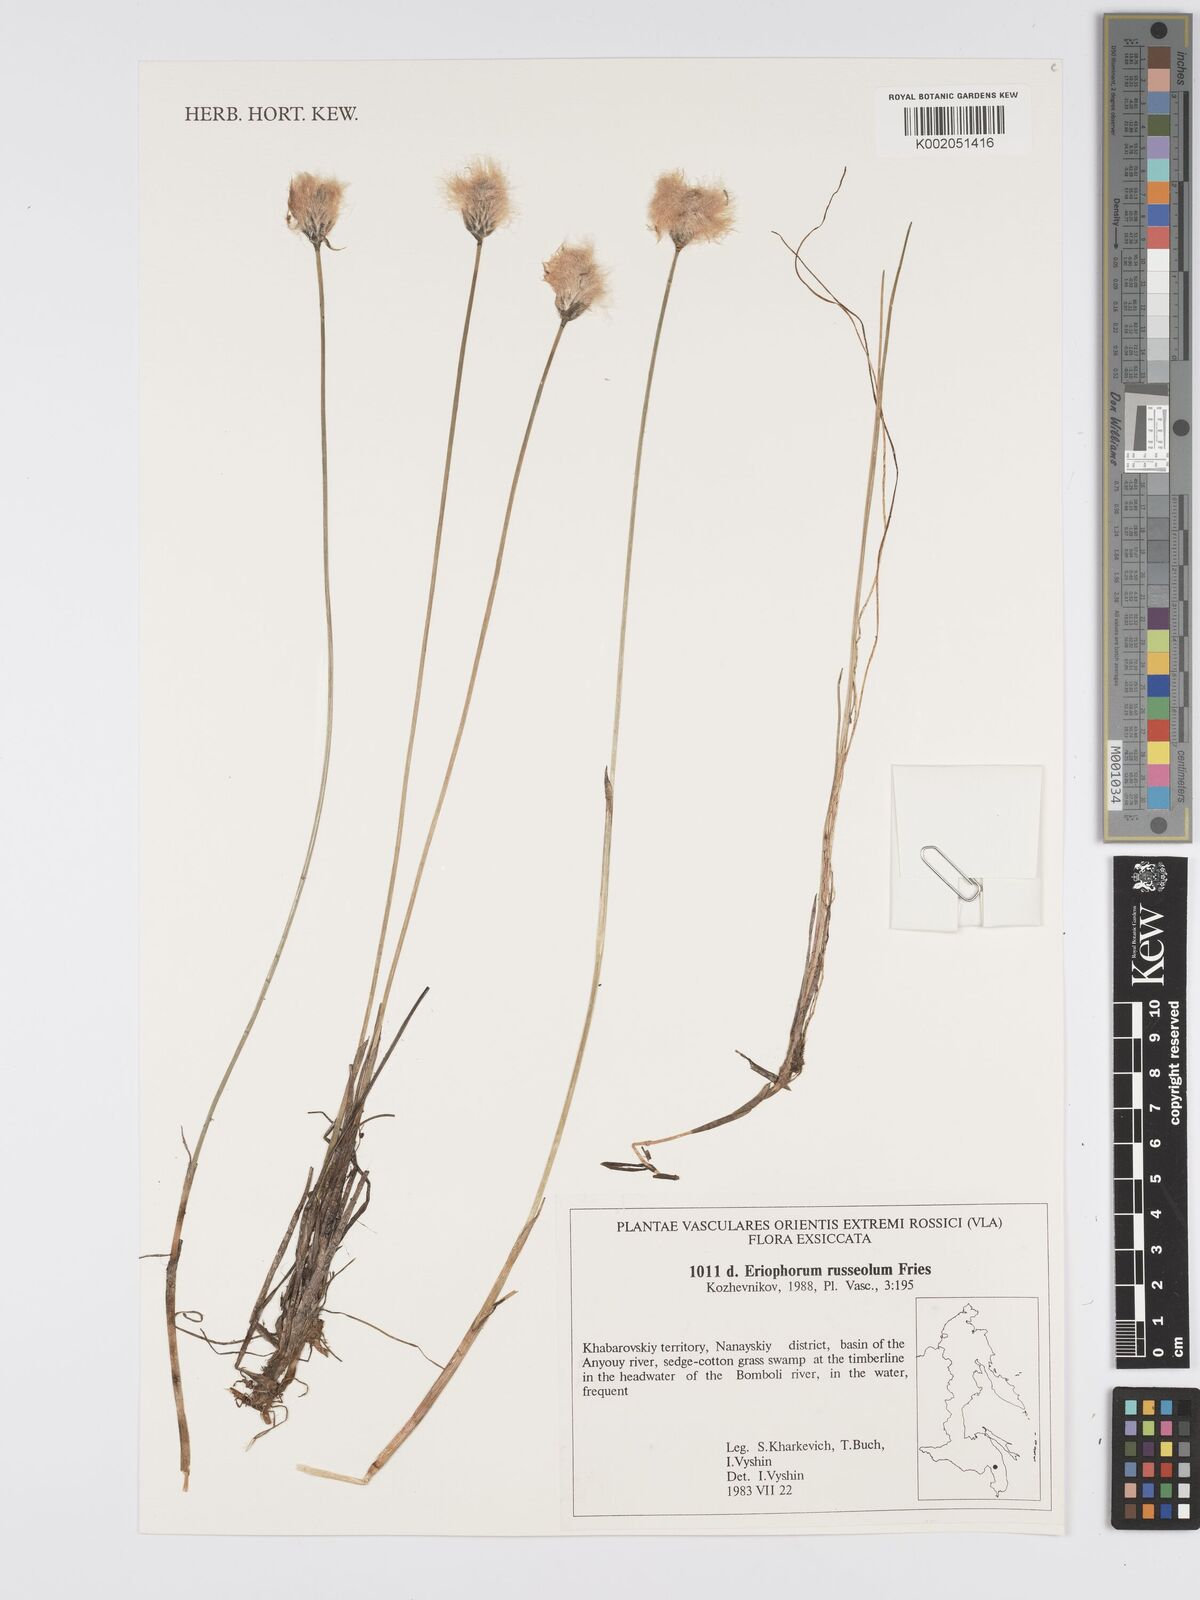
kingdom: Plantae
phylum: Tracheophyta
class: Liliopsida
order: Poales
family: Cyperaceae
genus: Eriophorum
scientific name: Eriophorum scheuchzeri
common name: Scheuchzer's cottongrass
